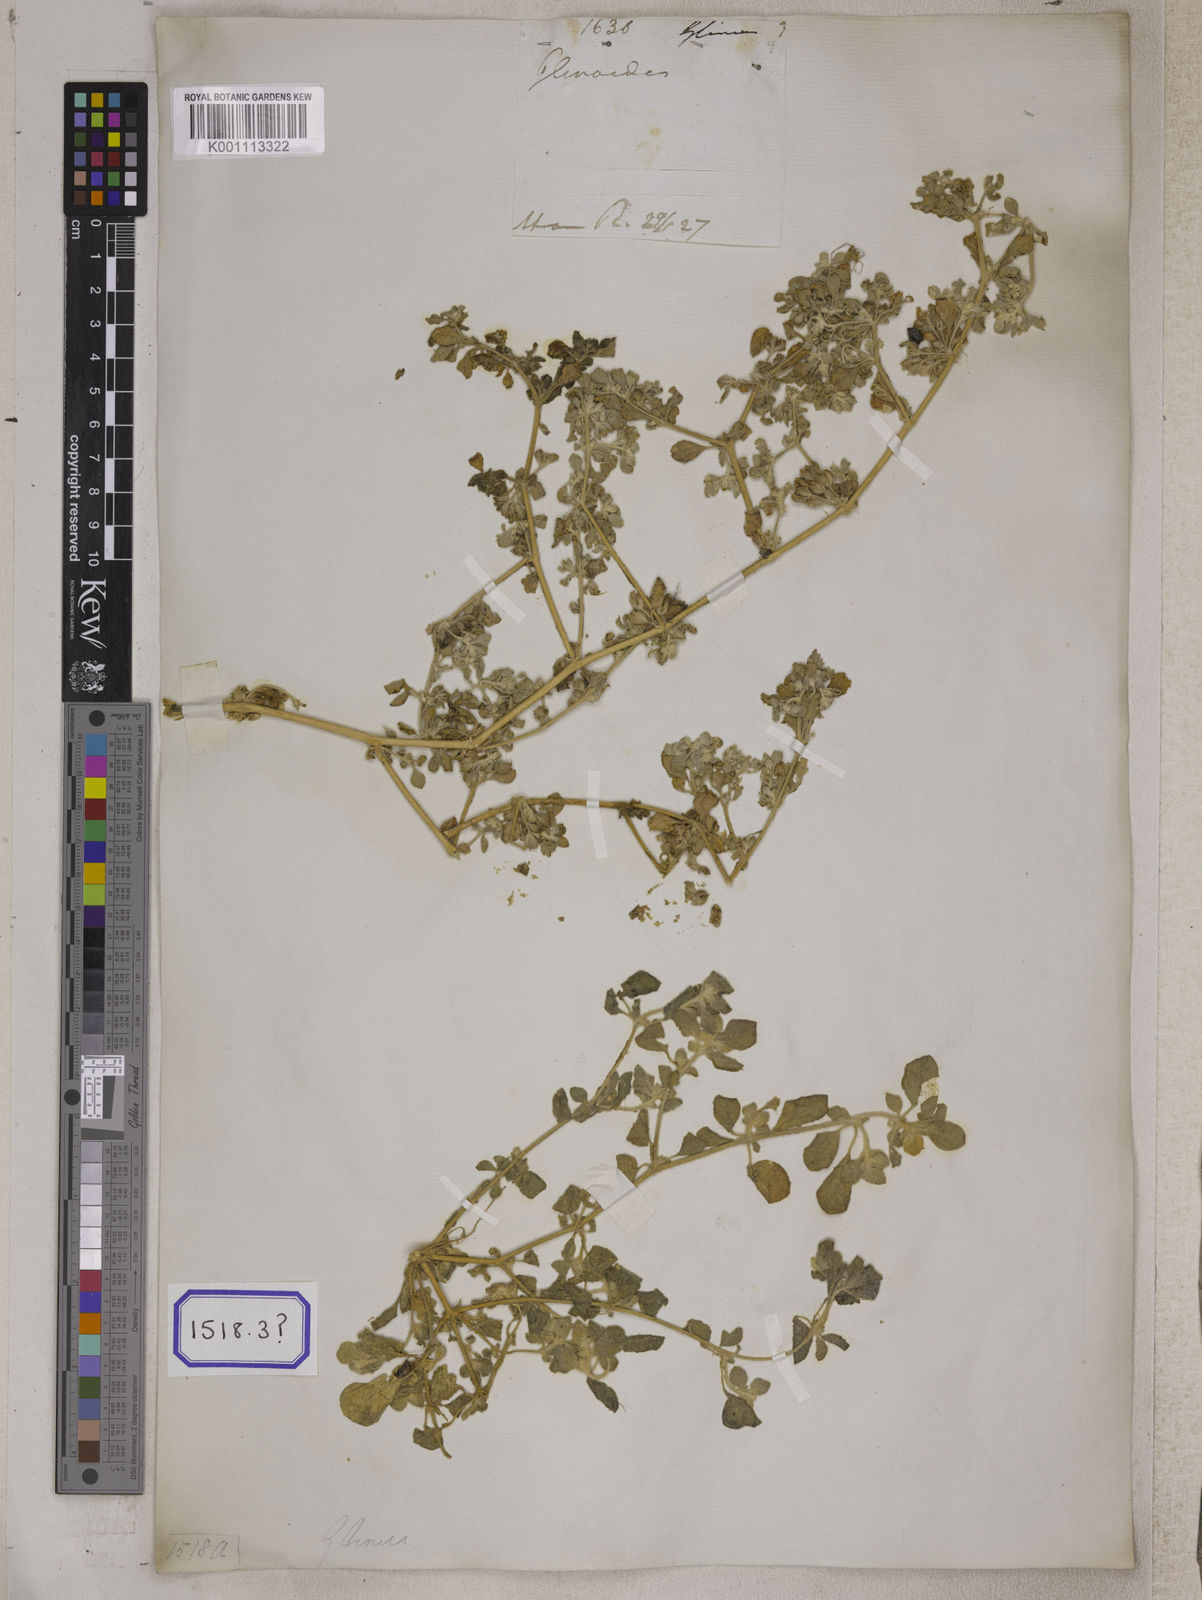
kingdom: Plantae
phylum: Tracheophyta
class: Magnoliopsida
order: Caryophyllales
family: Molluginaceae
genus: Glinus
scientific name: Glinus
